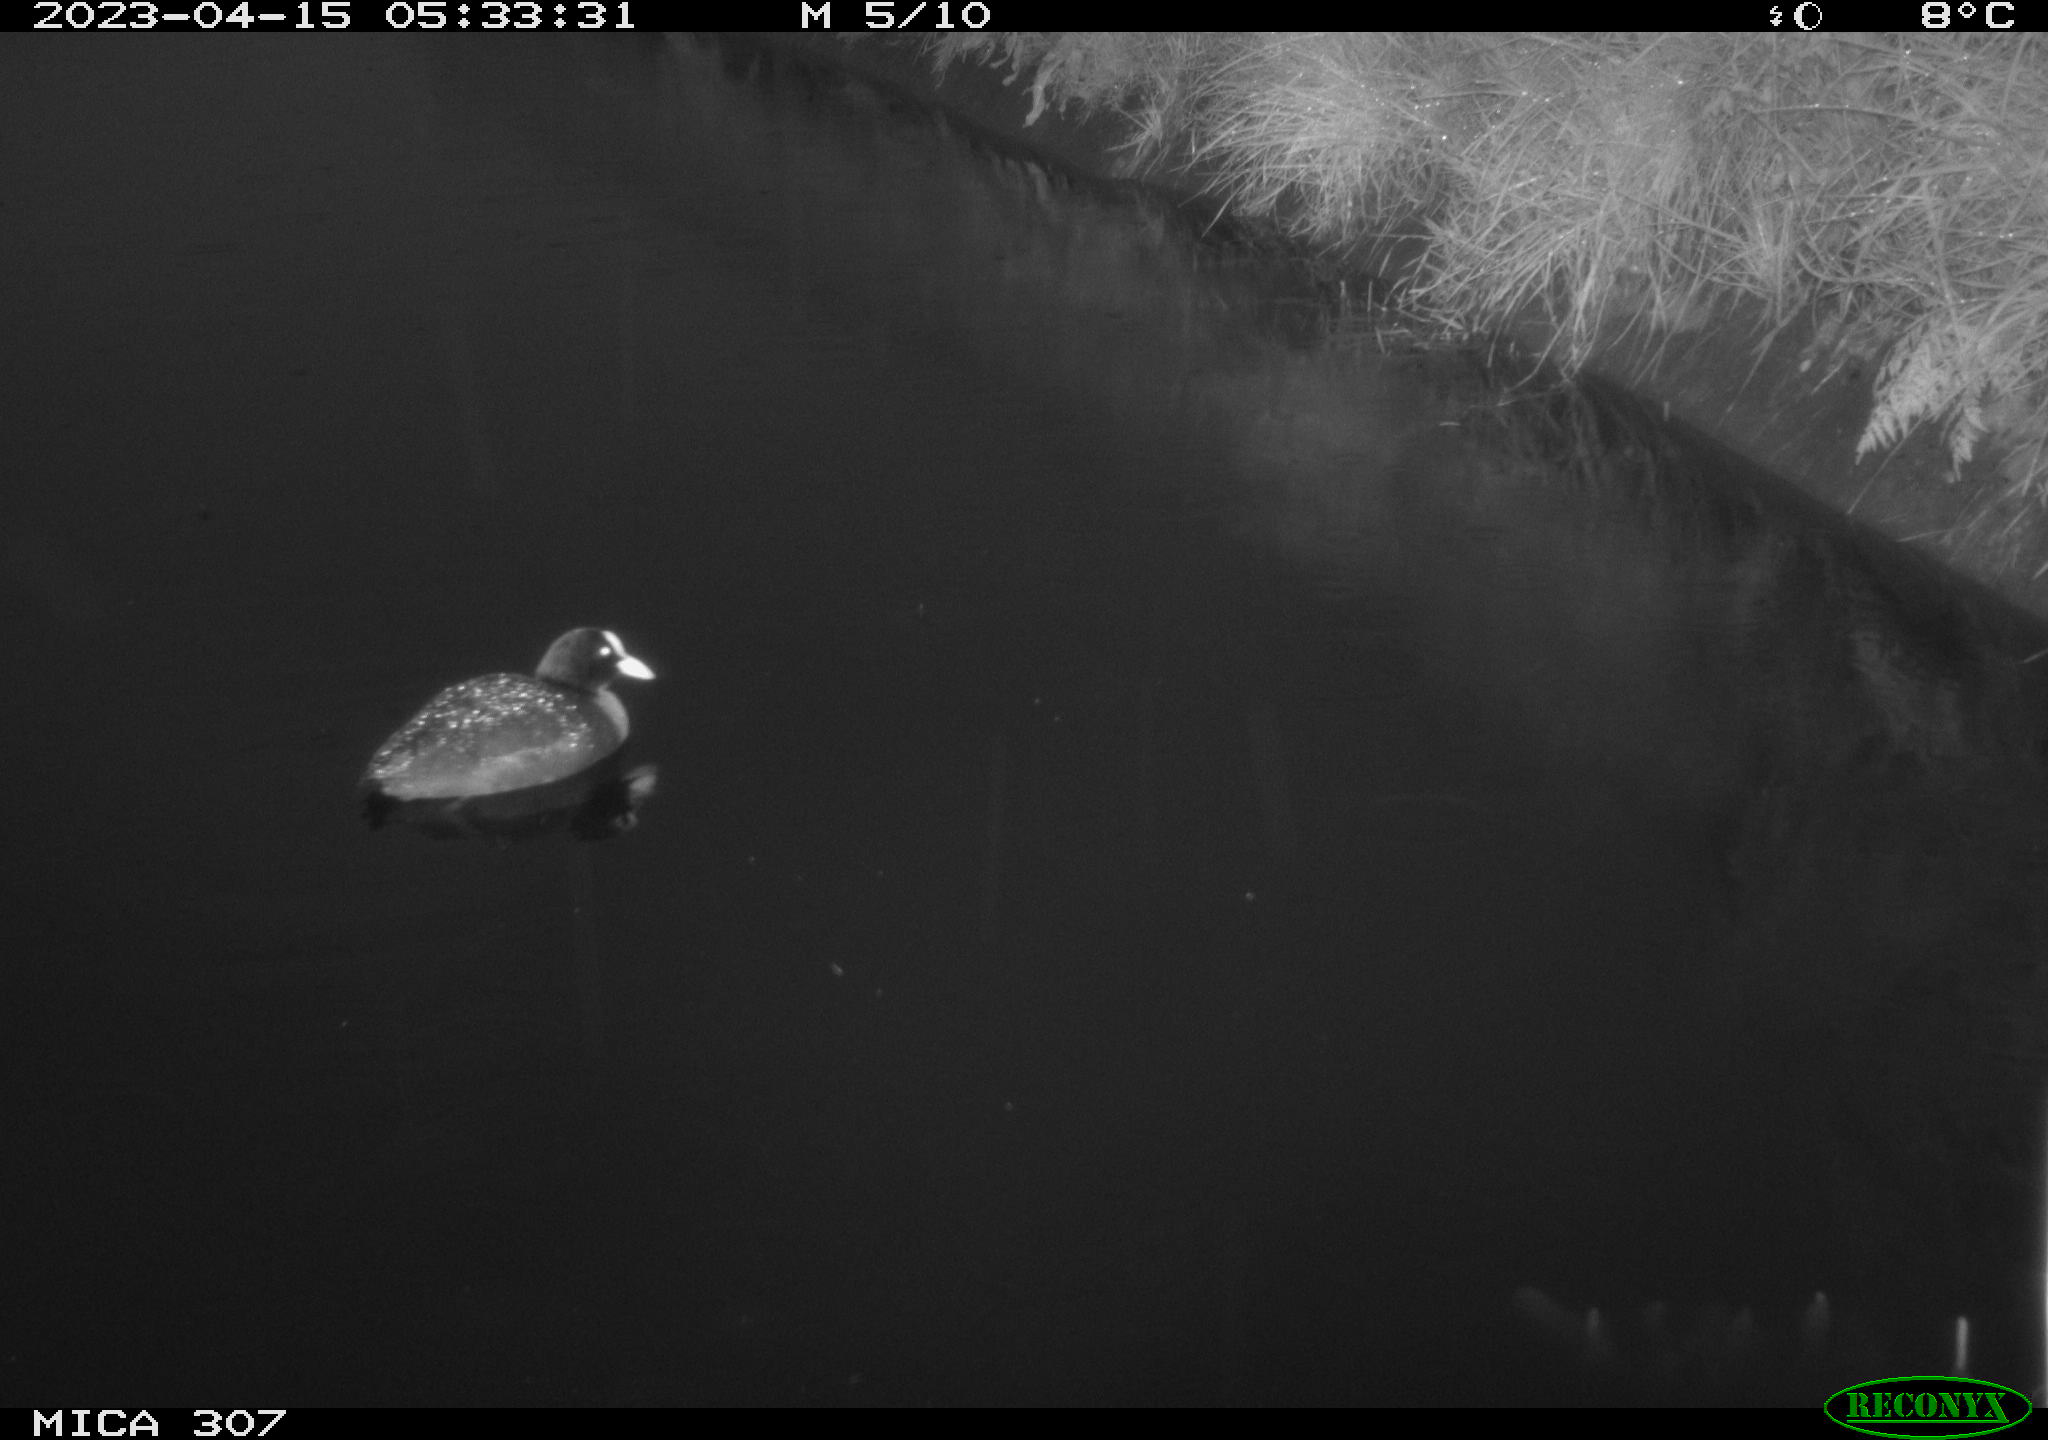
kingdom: Animalia
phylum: Chordata
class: Aves
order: Anseriformes
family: Anatidae
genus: Anas
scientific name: Anas
